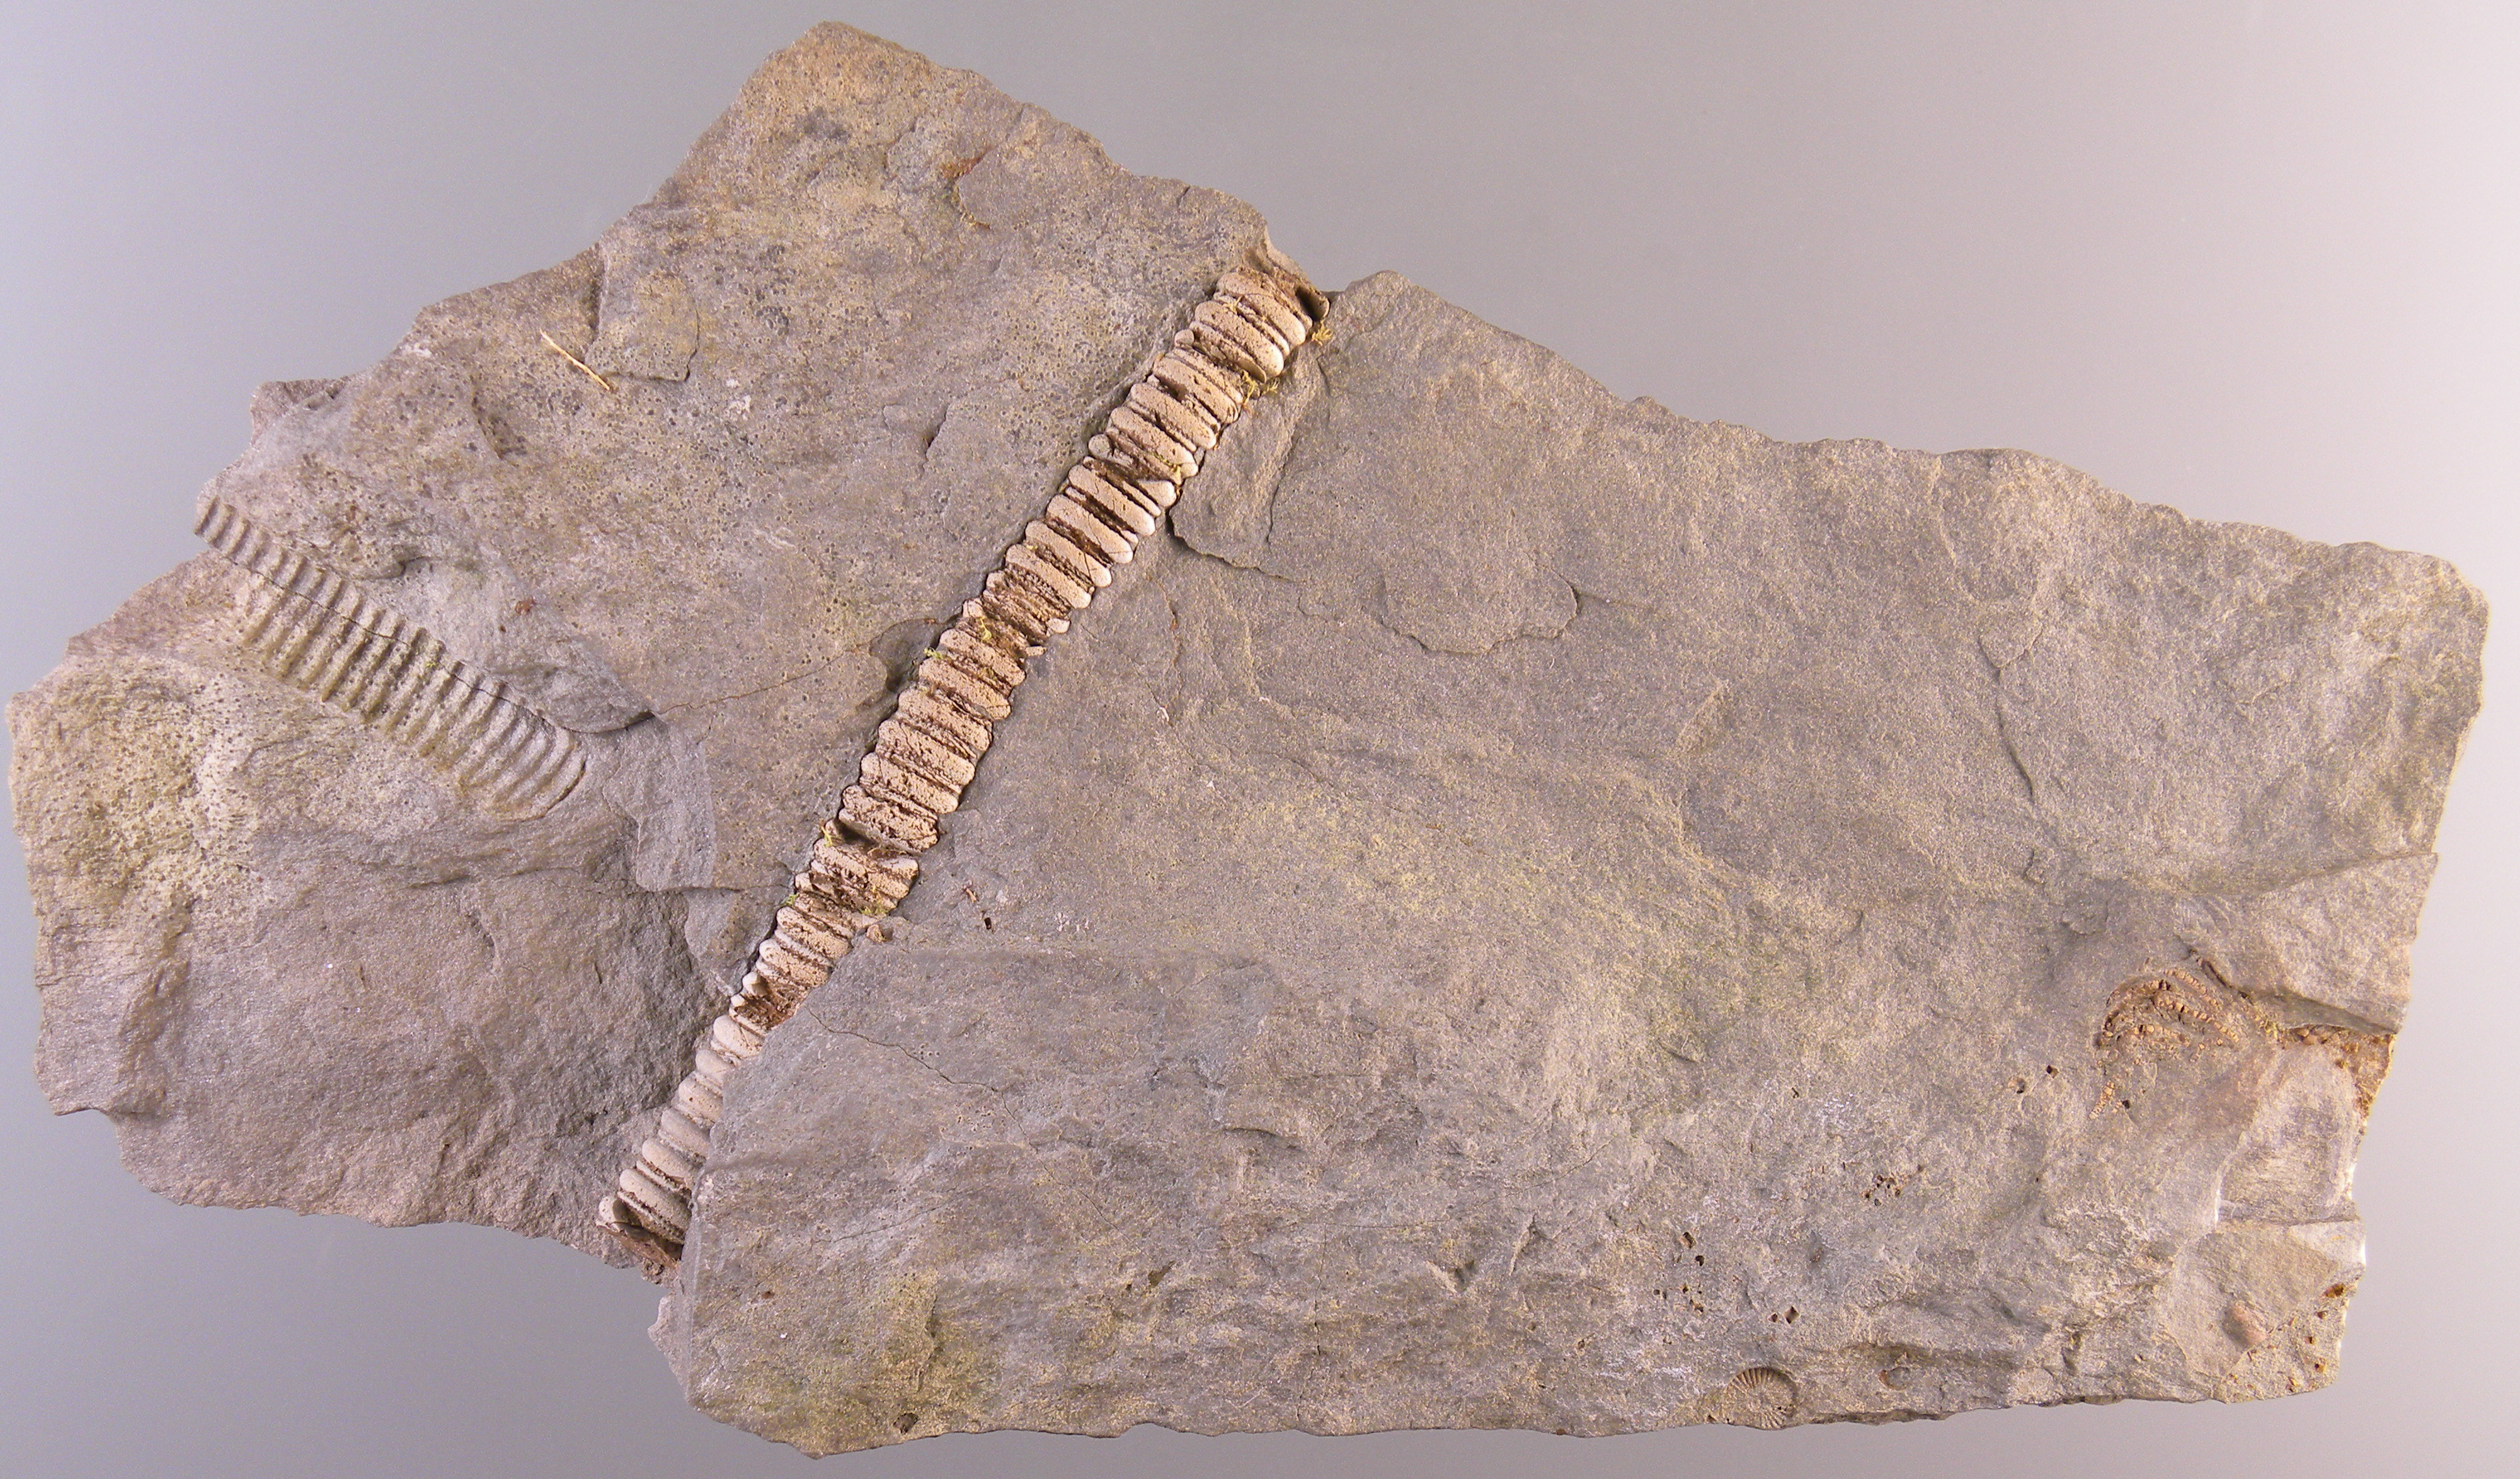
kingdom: Animalia
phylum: Echinodermata
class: Crinoidea
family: Melocrinitidae
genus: Ctenocrinus
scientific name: Ctenocrinus
